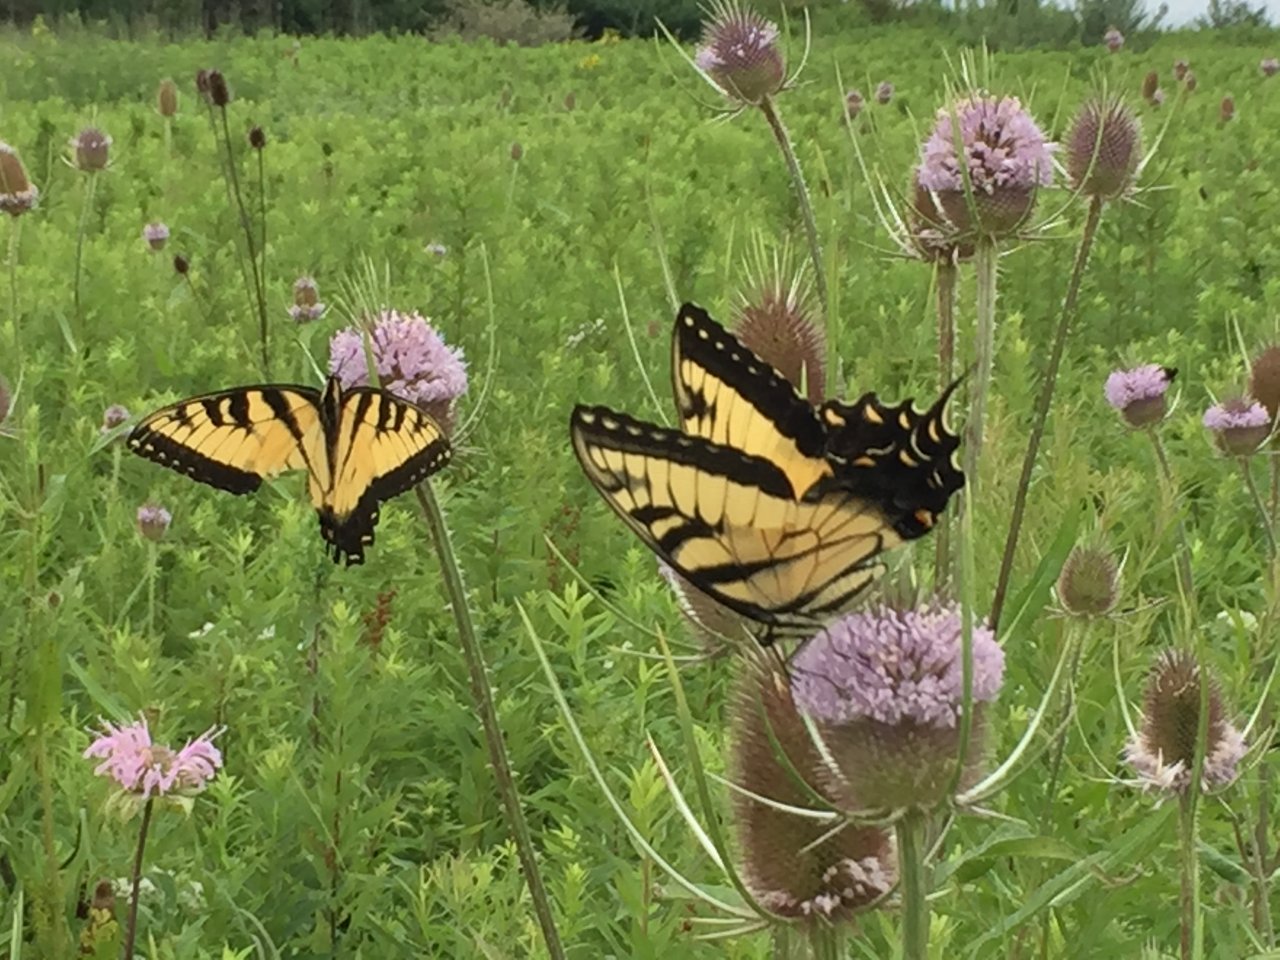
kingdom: Animalia
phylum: Arthropoda
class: Insecta
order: Lepidoptera
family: Papilionidae
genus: Pterourus
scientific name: Pterourus glaucus
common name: Eastern Tiger Swallowtail
